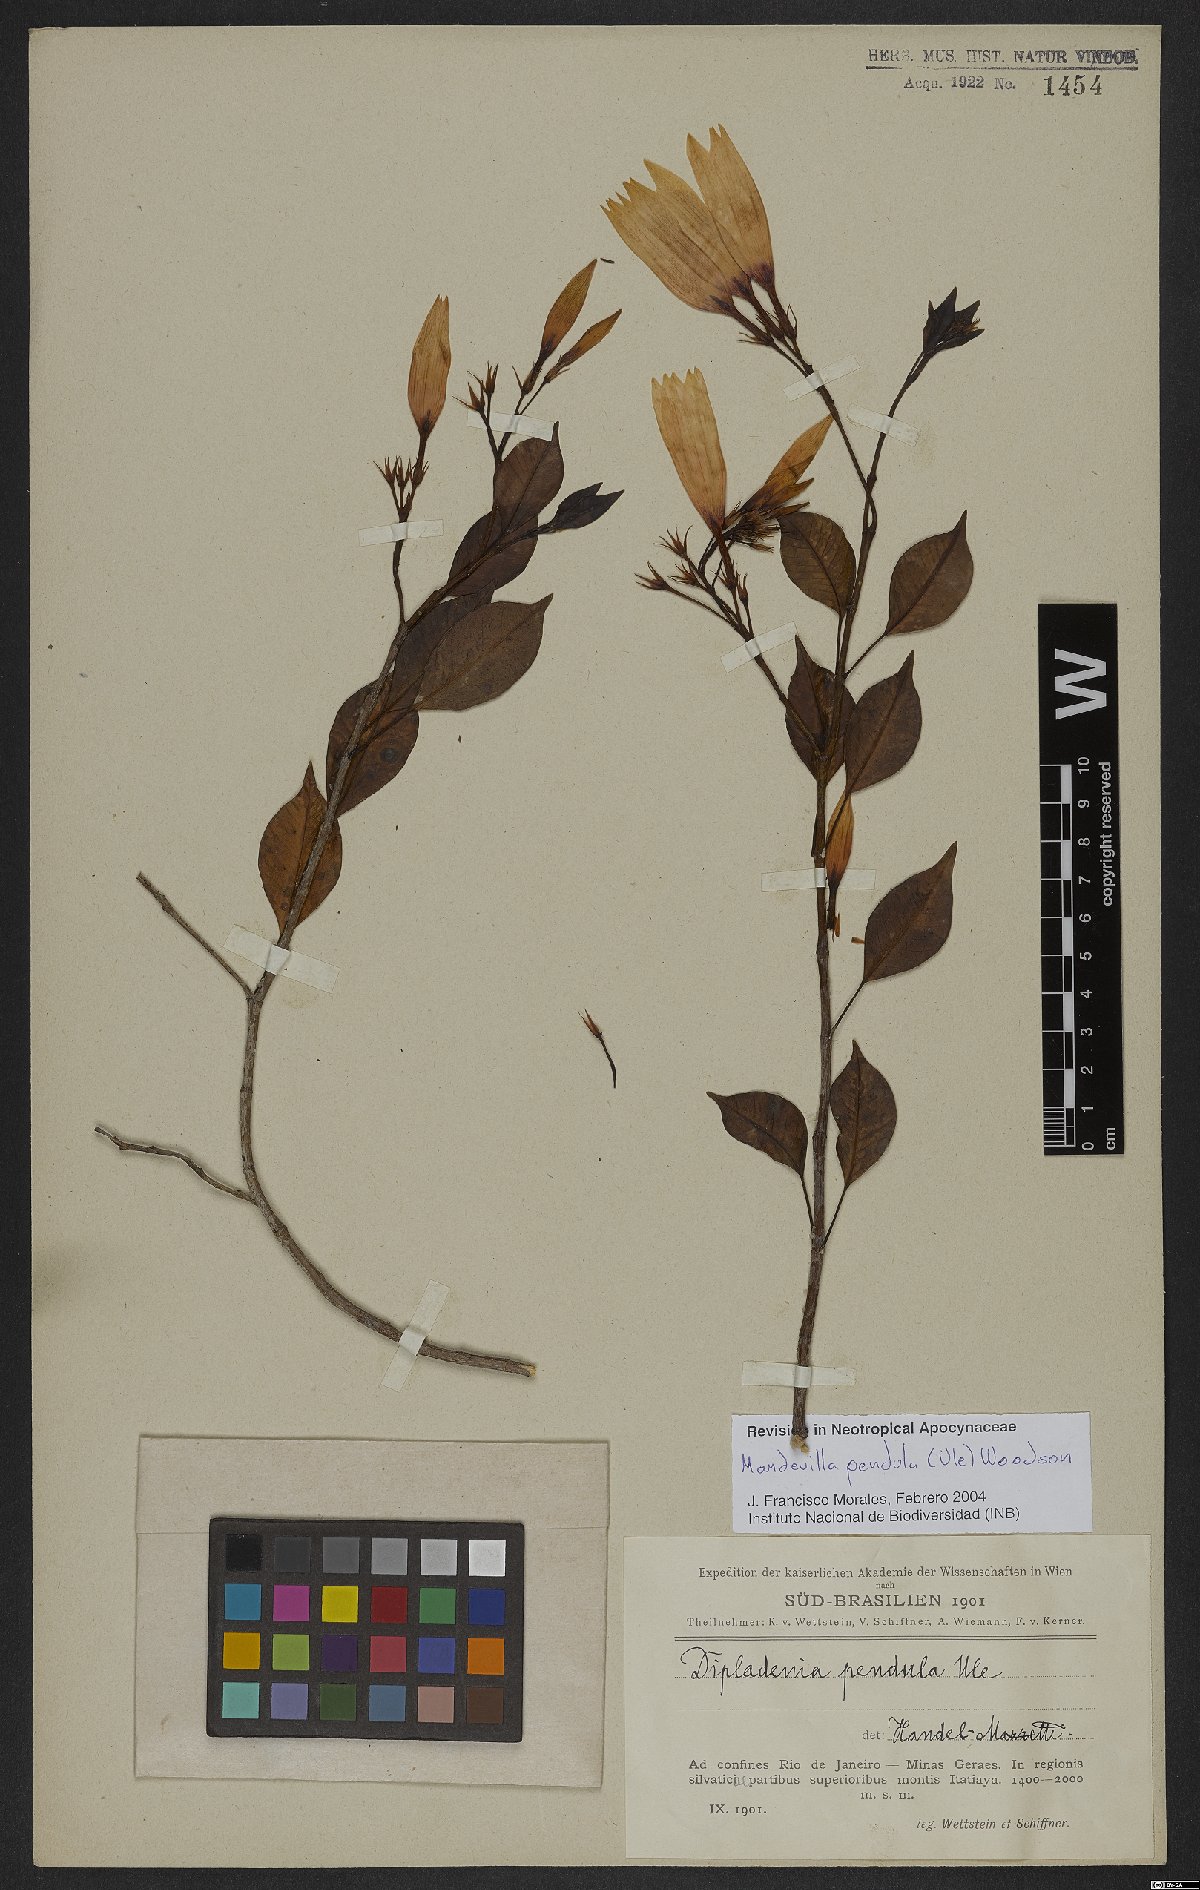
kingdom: Plantae
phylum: Tracheophyta
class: Magnoliopsida
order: Gentianales
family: Apocynaceae
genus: Mandevilla
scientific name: Mandevilla pendula
